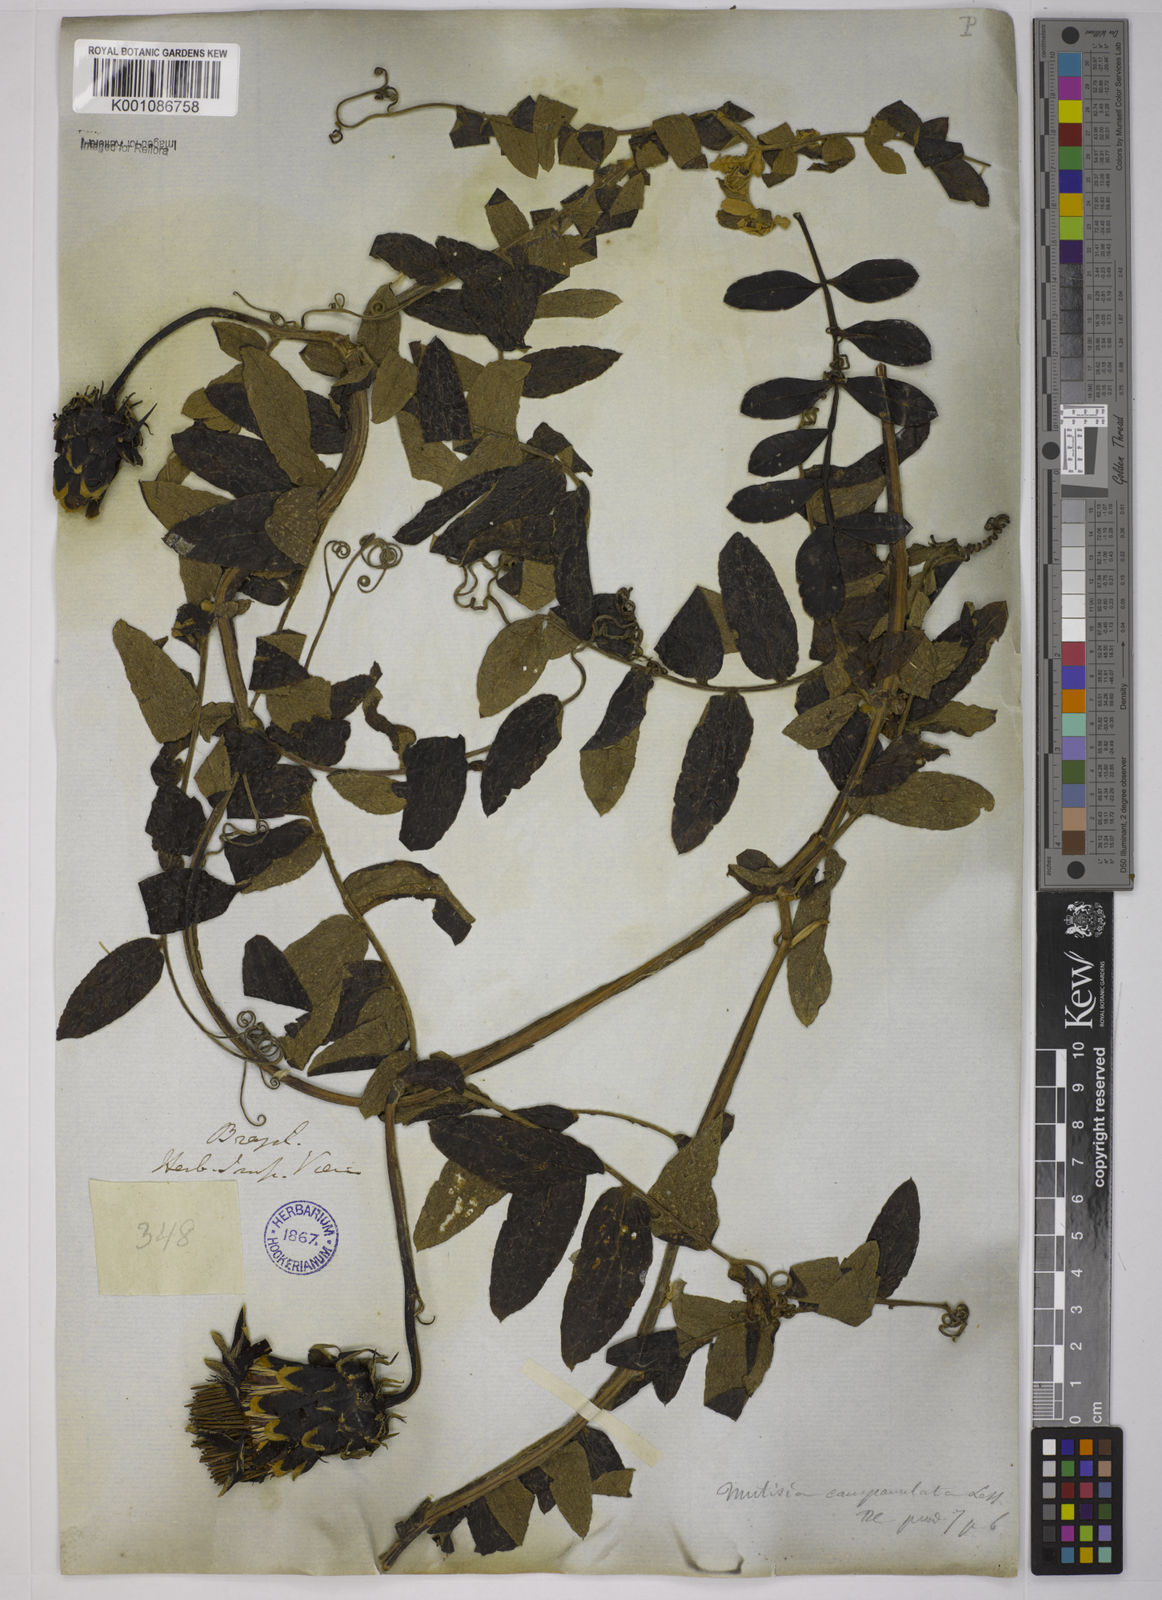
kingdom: Plantae
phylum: Tracheophyta
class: Magnoliopsida
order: Asterales
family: Asteraceae
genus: Mutisia
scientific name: Mutisia campanulata
